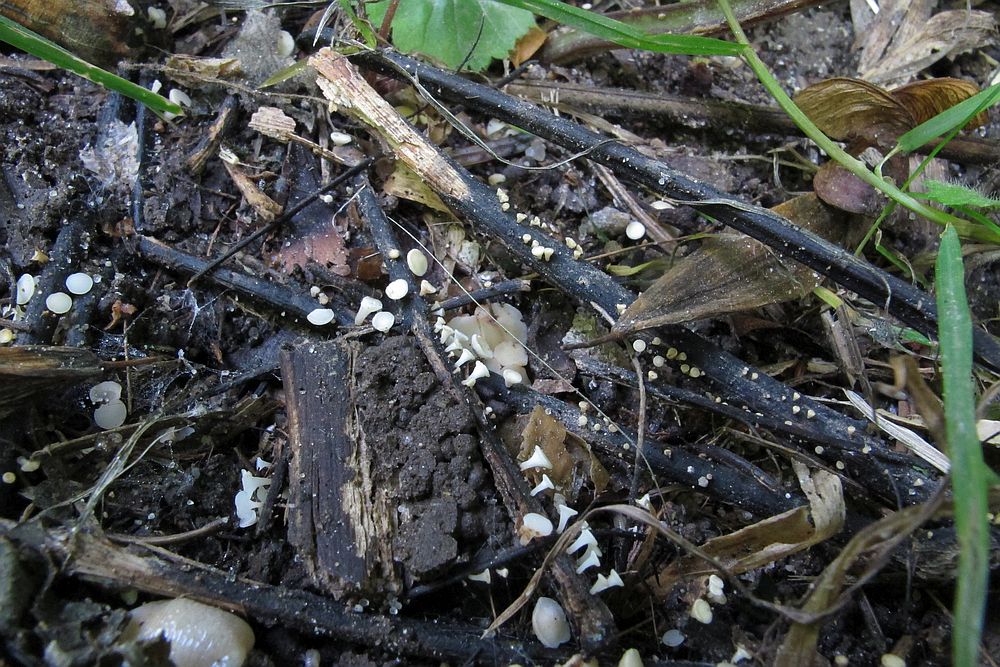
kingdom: Fungi
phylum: Ascomycota
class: Leotiomycetes
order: Helotiales
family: Helotiaceae
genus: Hymenoscyphus
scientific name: Hymenoscyphus fraxineus
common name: asketoptørre-stilkskive
